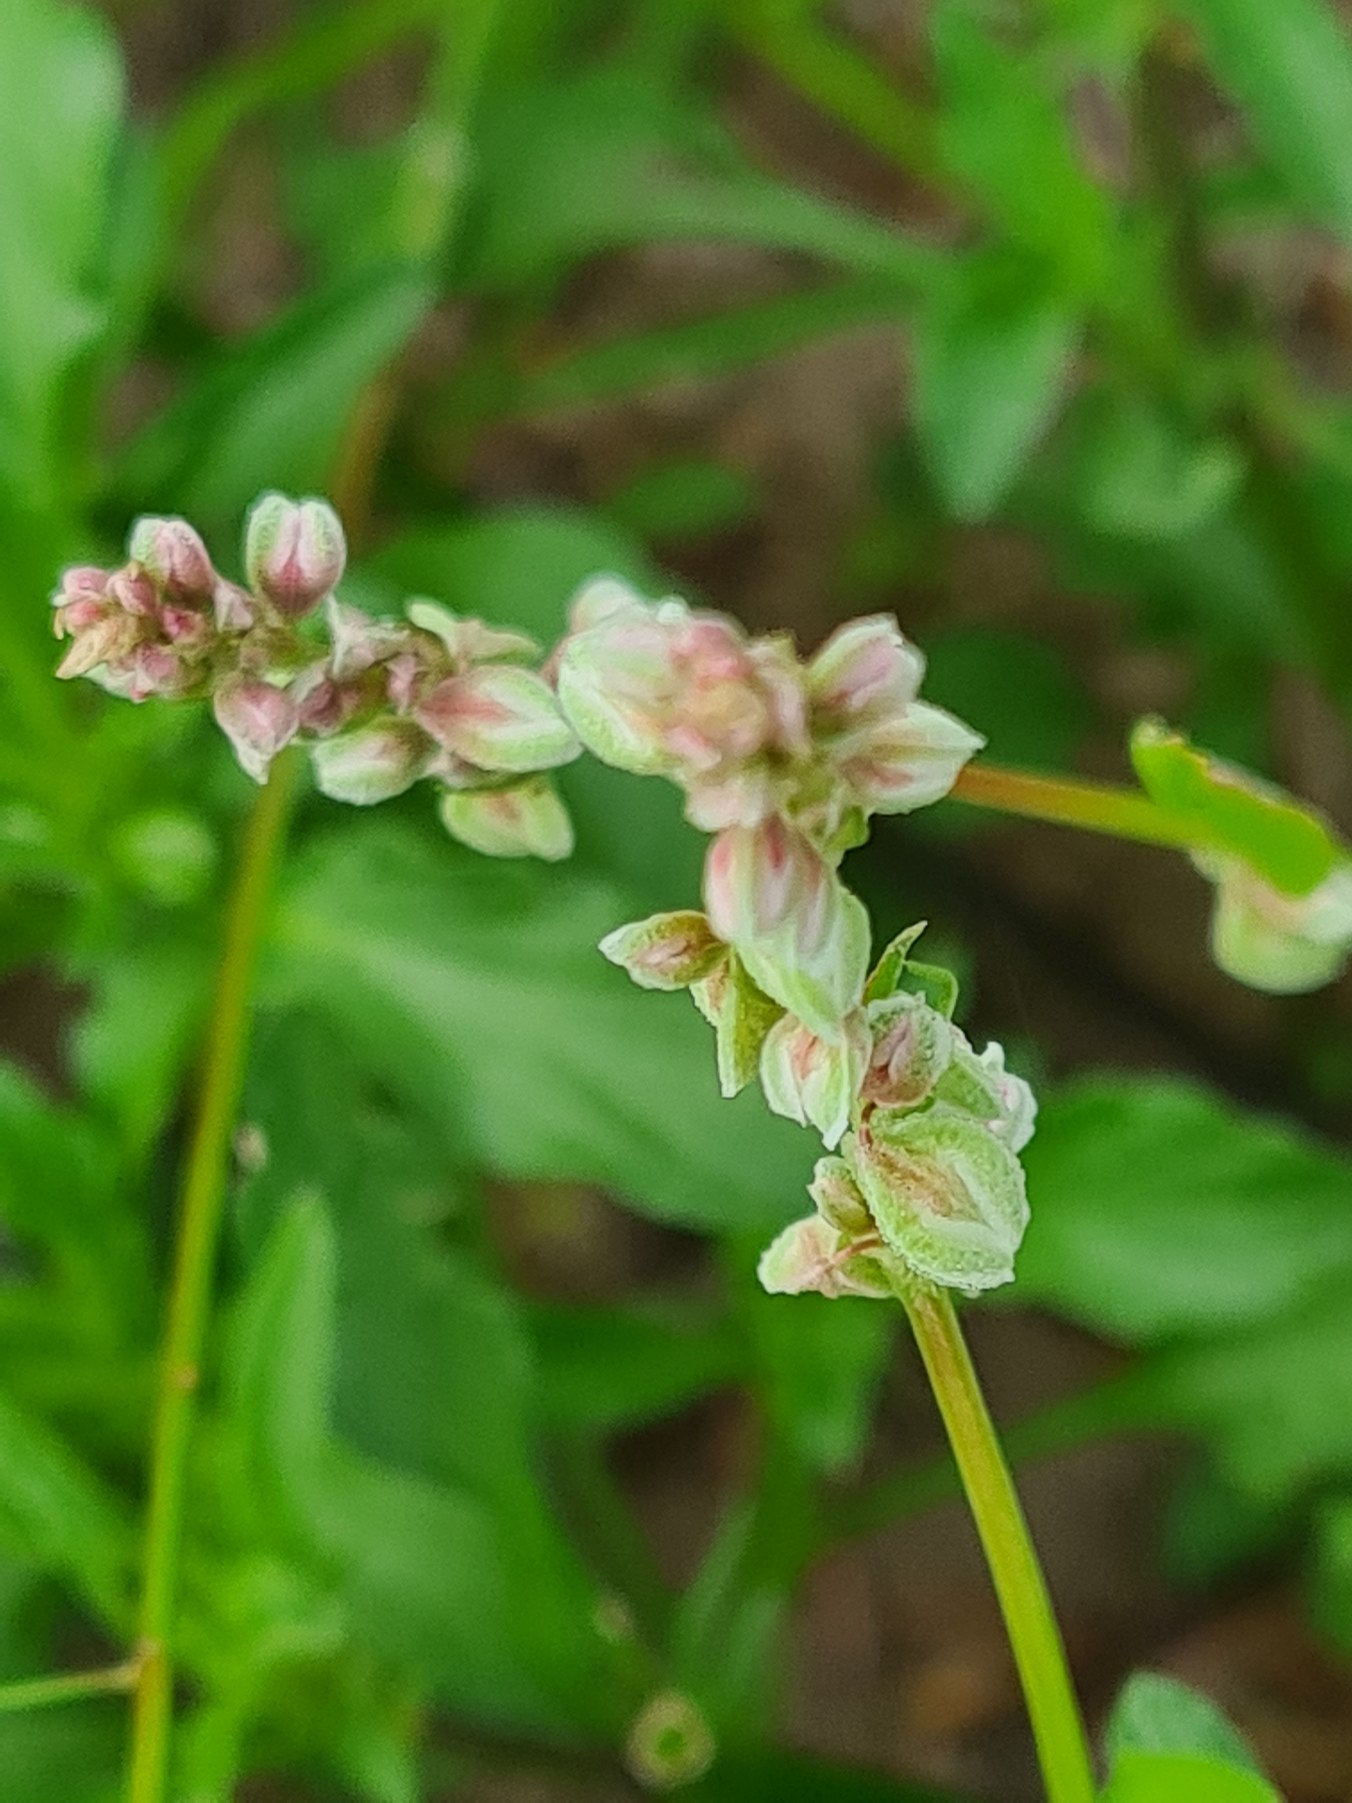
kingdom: Plantae
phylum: Tracheophyta
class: Magnoliopsida
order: Caryophyllales
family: Polygonaceae
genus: Fallopia
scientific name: Fallopia convolvulus
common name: Snerle-pileurt
